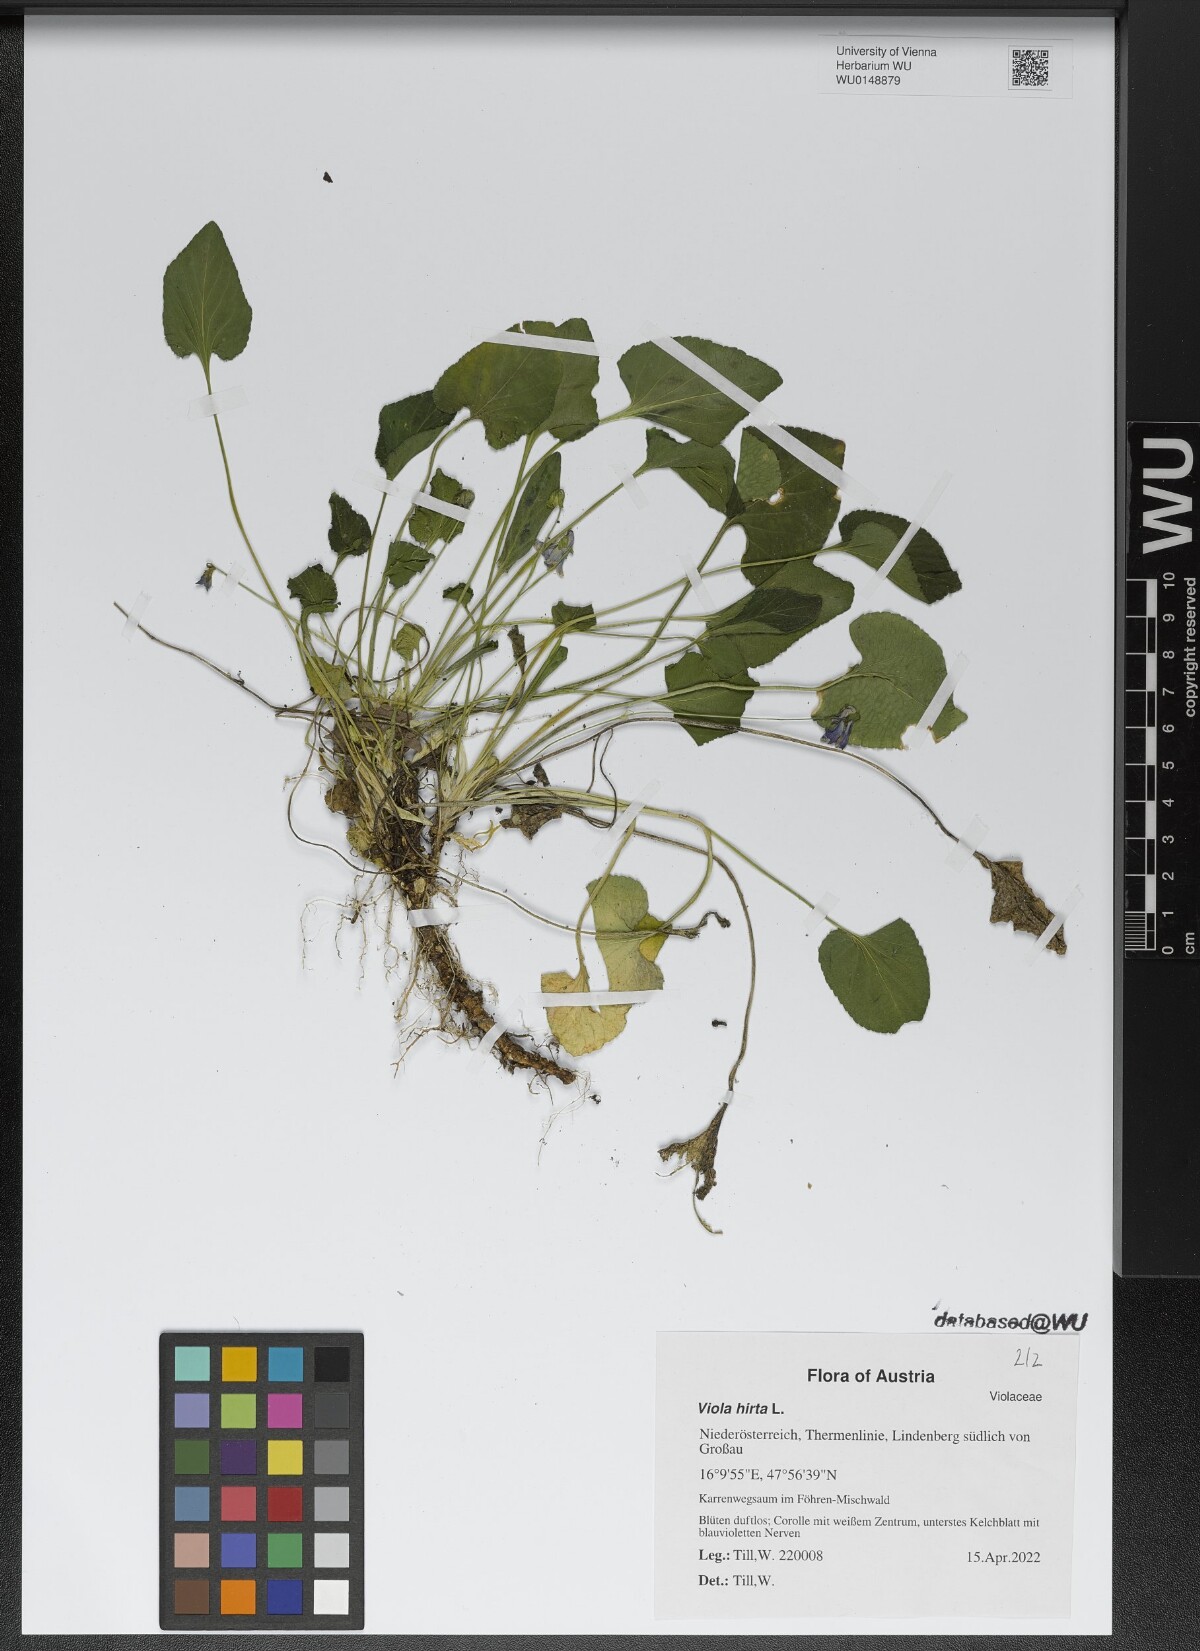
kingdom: Plantae
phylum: Tracheophyta
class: Magnoliopsida
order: Malpighiales
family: Violaceae
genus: Viola
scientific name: Viola hirta
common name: Hairy violet
